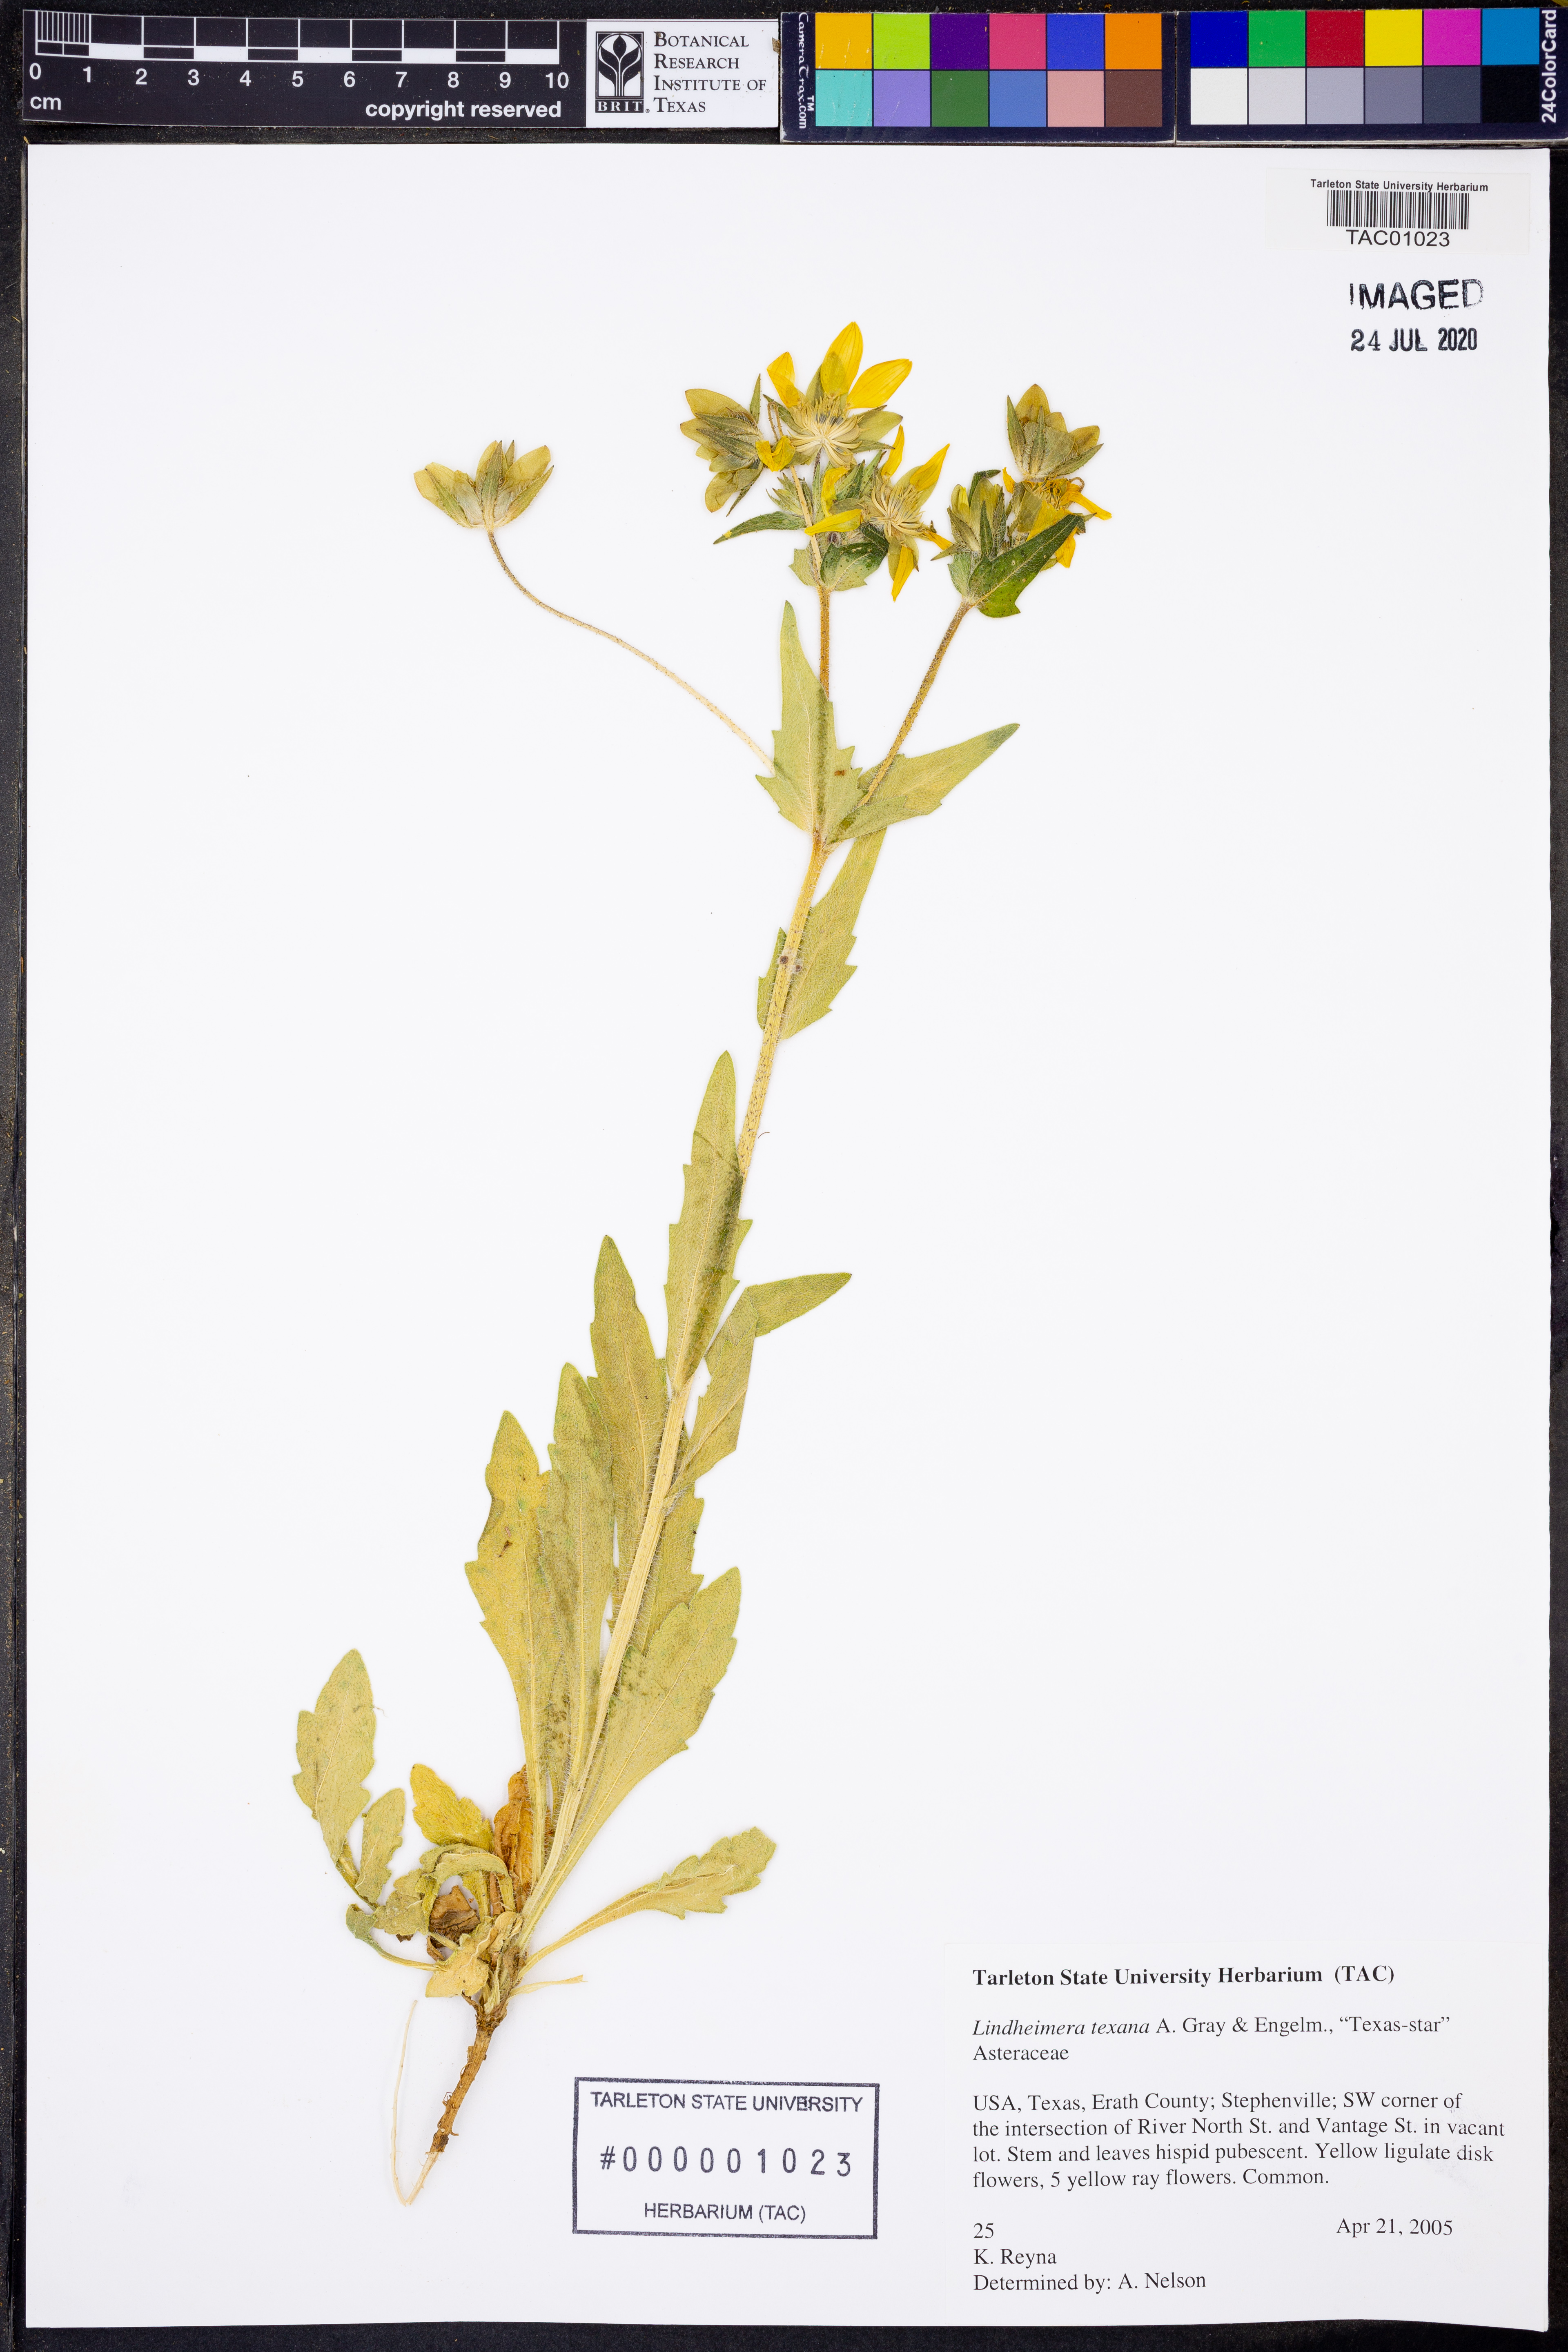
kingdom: Plantae
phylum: Tracheophyta
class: Magnoliopsida
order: Asterales
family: Asteraceae
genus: Lindheimera
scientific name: Lindheimera texana
